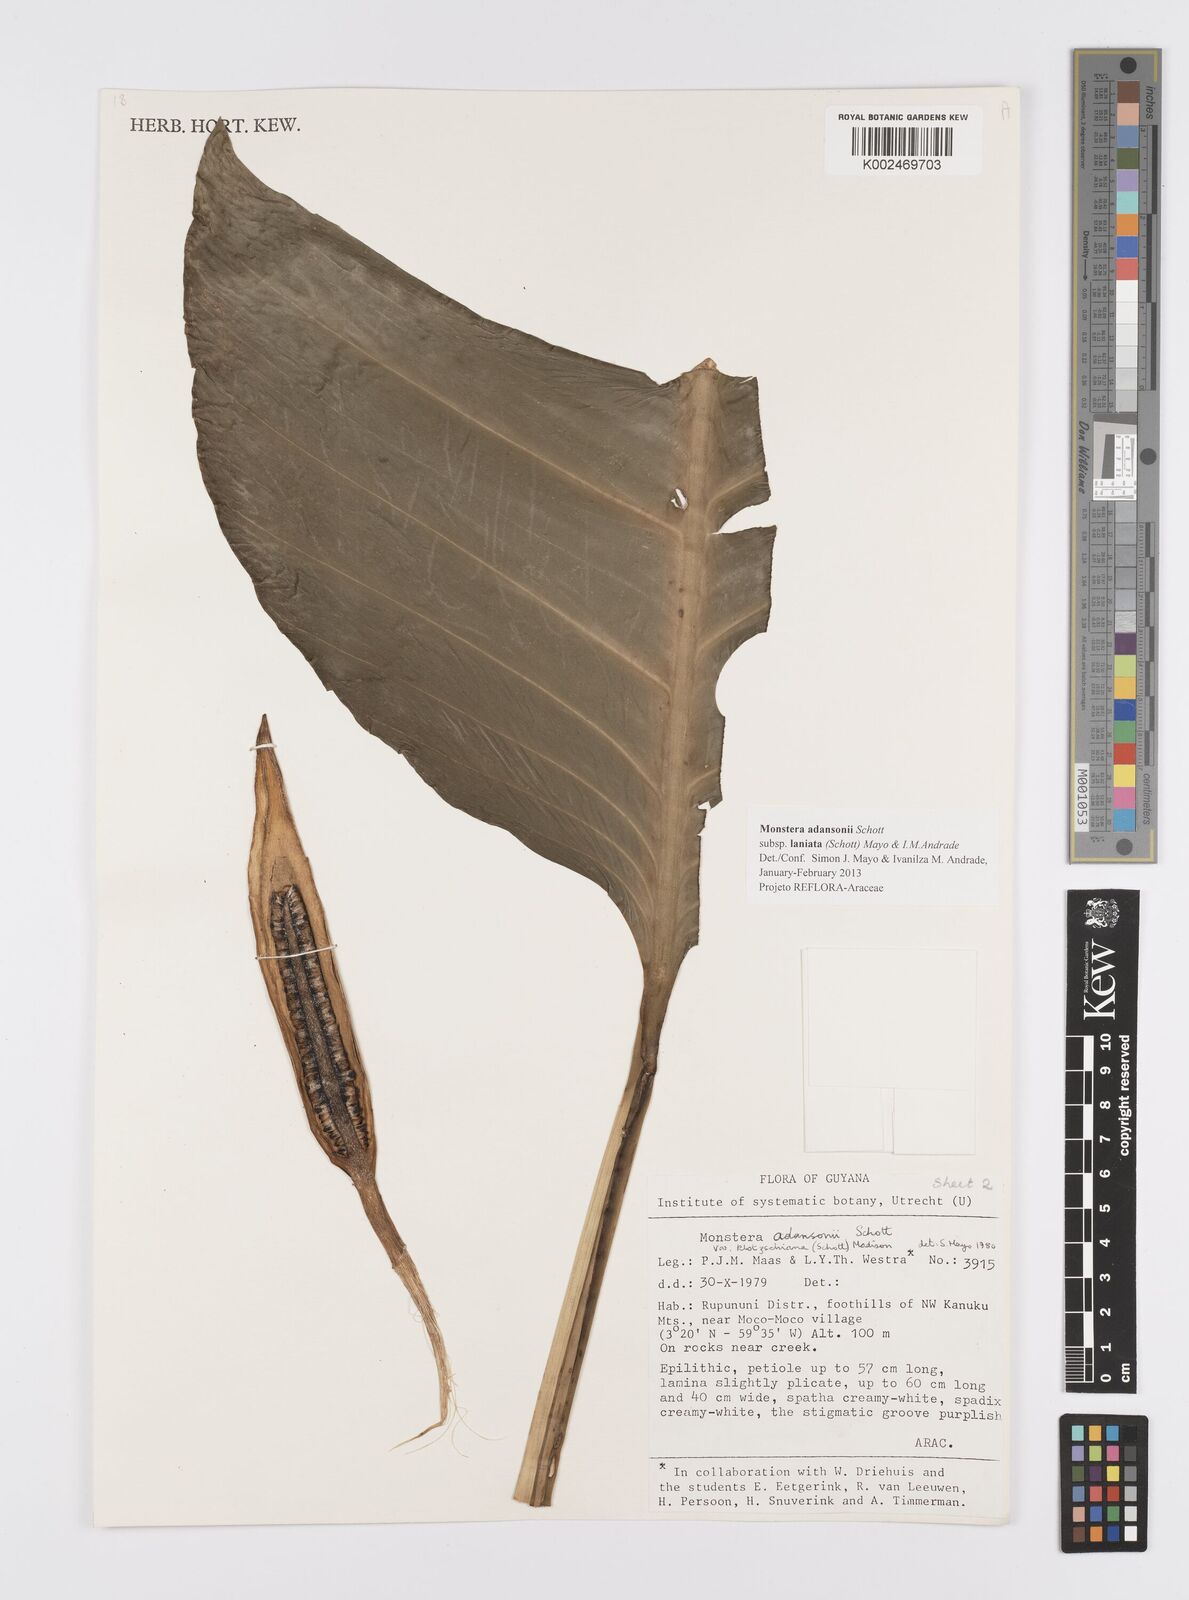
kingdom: Plantae
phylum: Tracheophyta
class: Liliopsida
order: Alismatales
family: Araceae
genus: Monstera
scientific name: Monstera adansonii
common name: Tarovine
